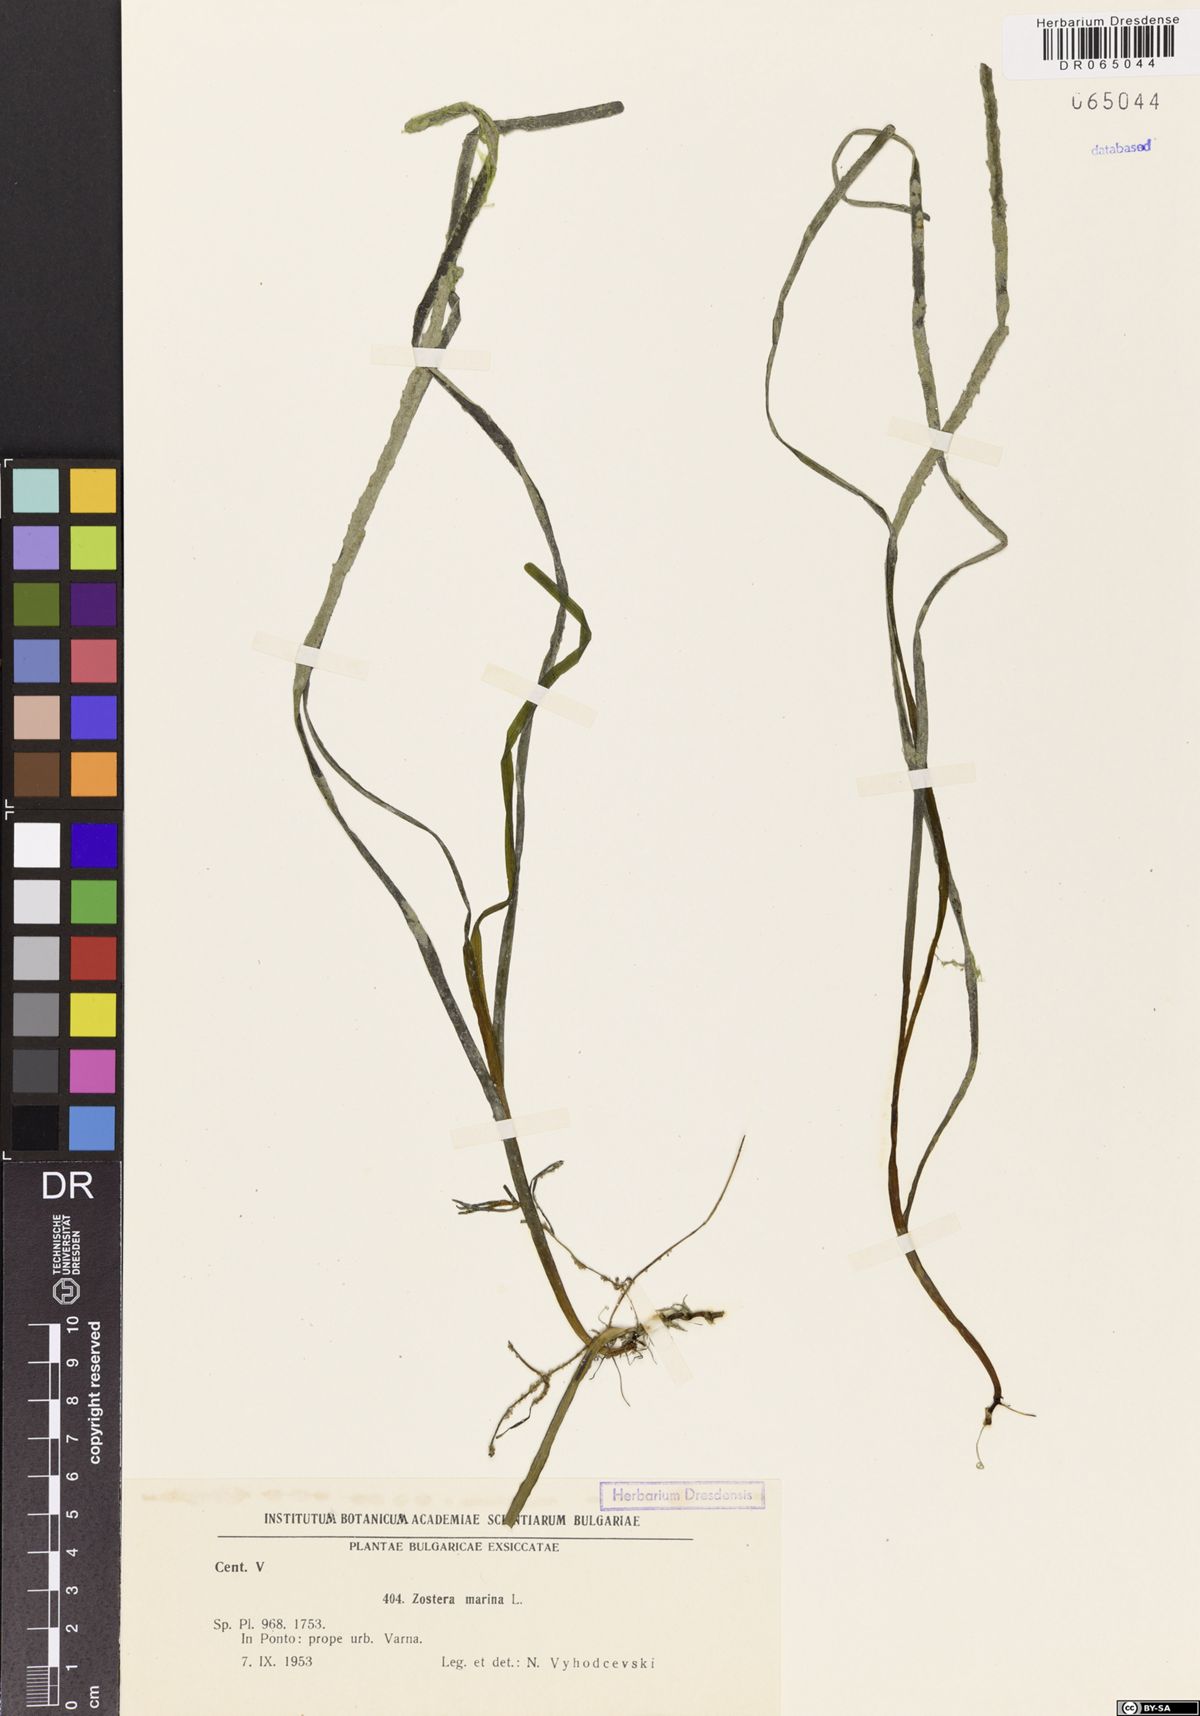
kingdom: Plantae
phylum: Tracheophyta
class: Liliopsida
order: Alismatales
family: Zosteraceae
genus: Zostera
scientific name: Zostera marina
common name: Eelgrass
